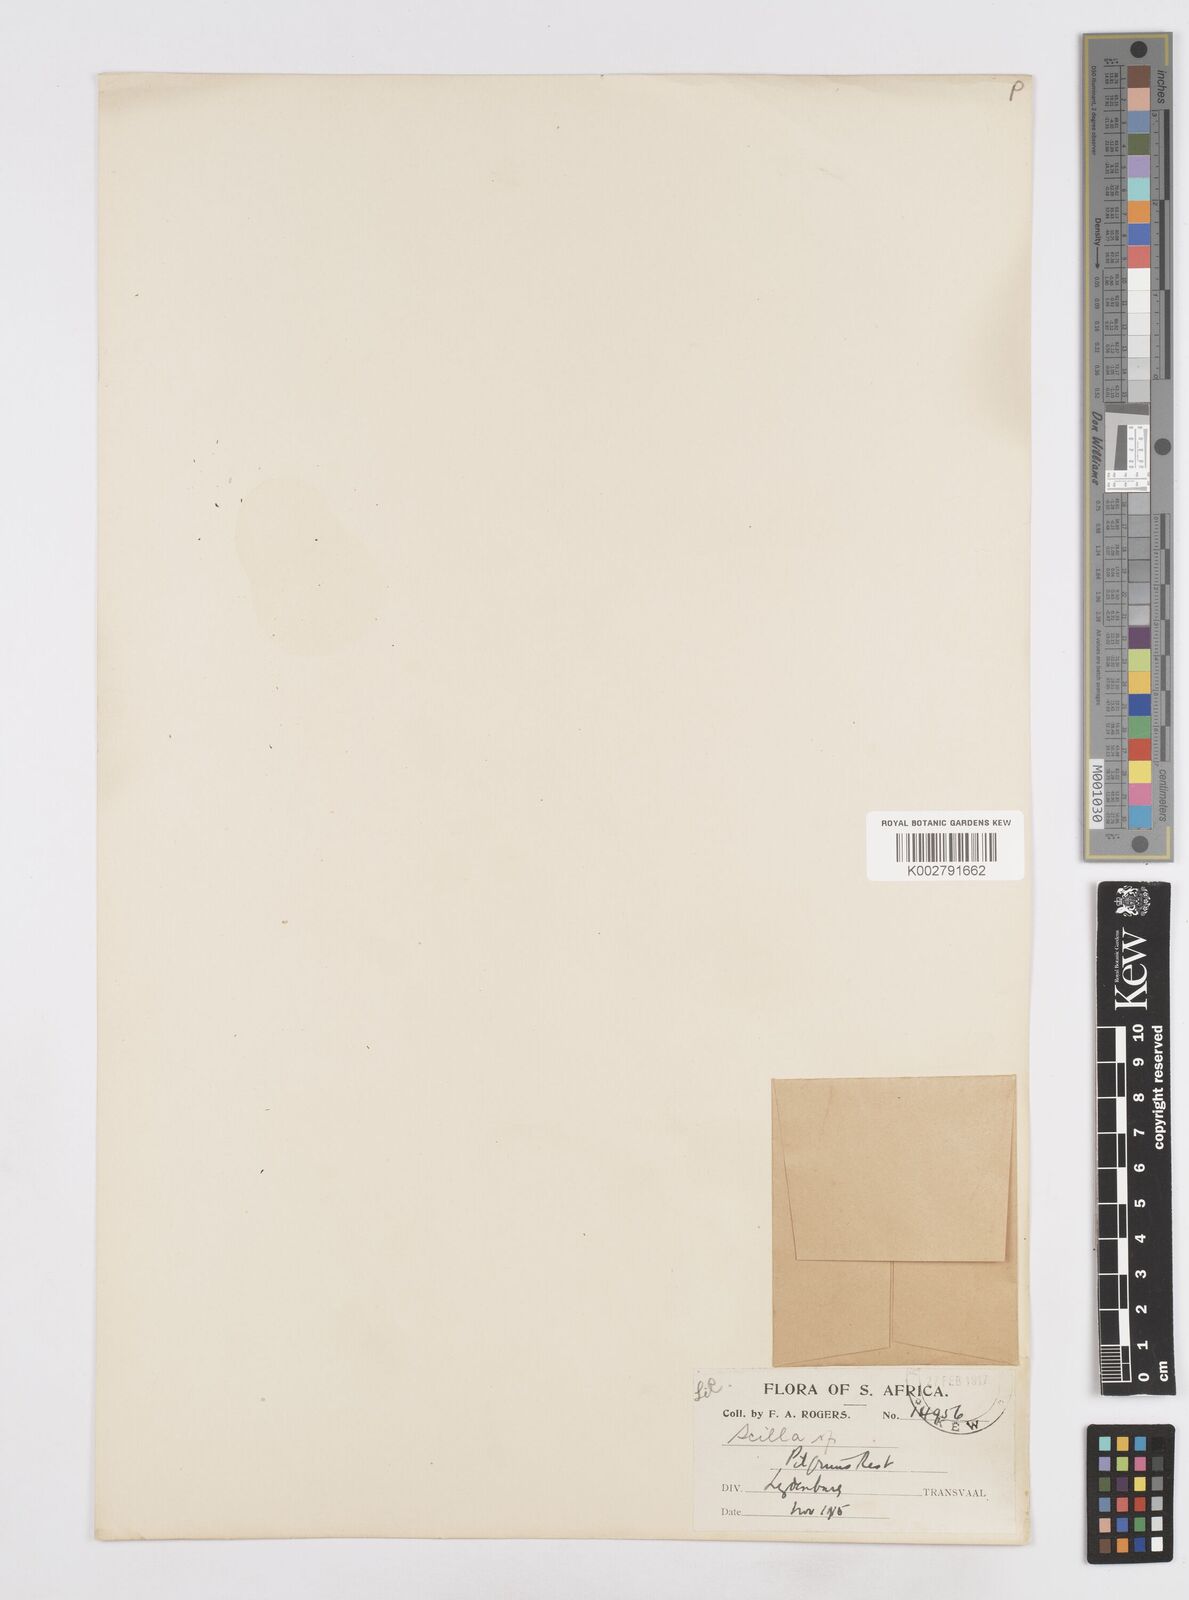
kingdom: Plantae
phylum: Tracheophyta
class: Liliopsida
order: Asparagales
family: Asparagaceae
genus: Scilla
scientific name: Scilla
